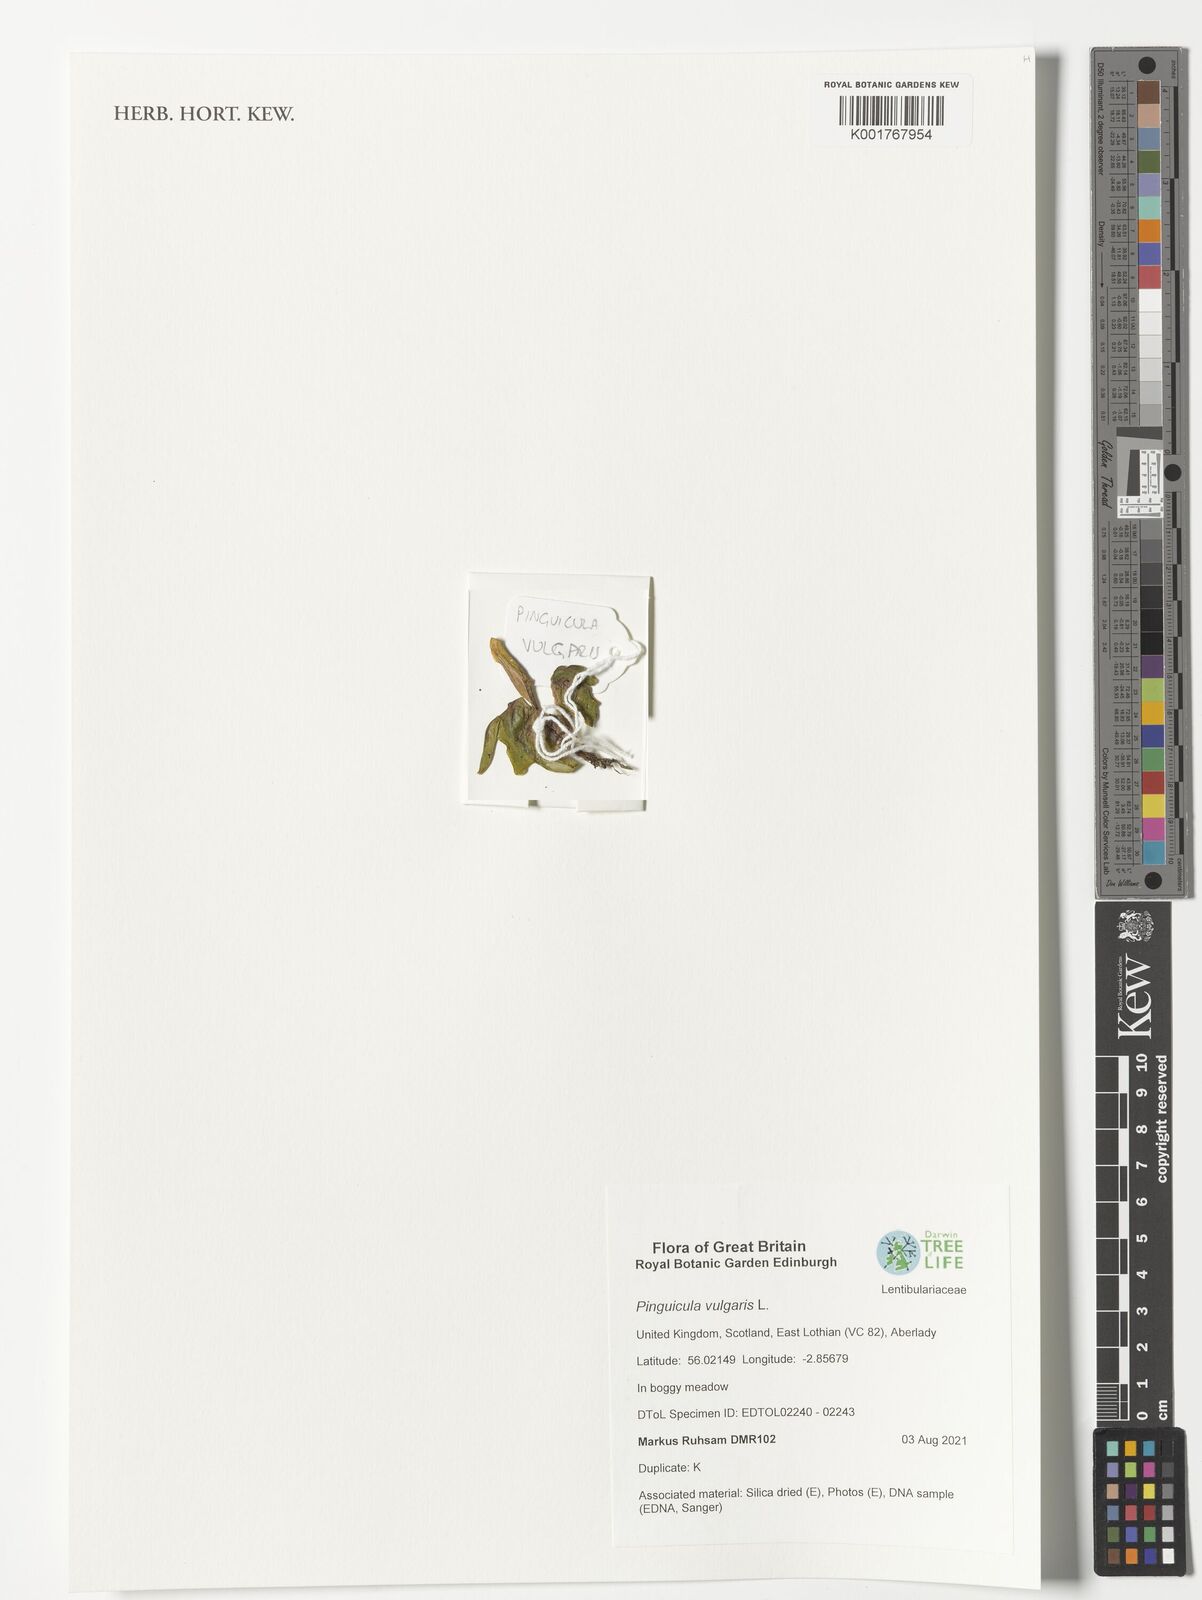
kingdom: Plantae
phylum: Tracheophyta
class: Magnoliopsida
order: Lamiales
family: Lentibulariaceae
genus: Pinguicula
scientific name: Pinguicula vulgaris
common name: Common butterwort
